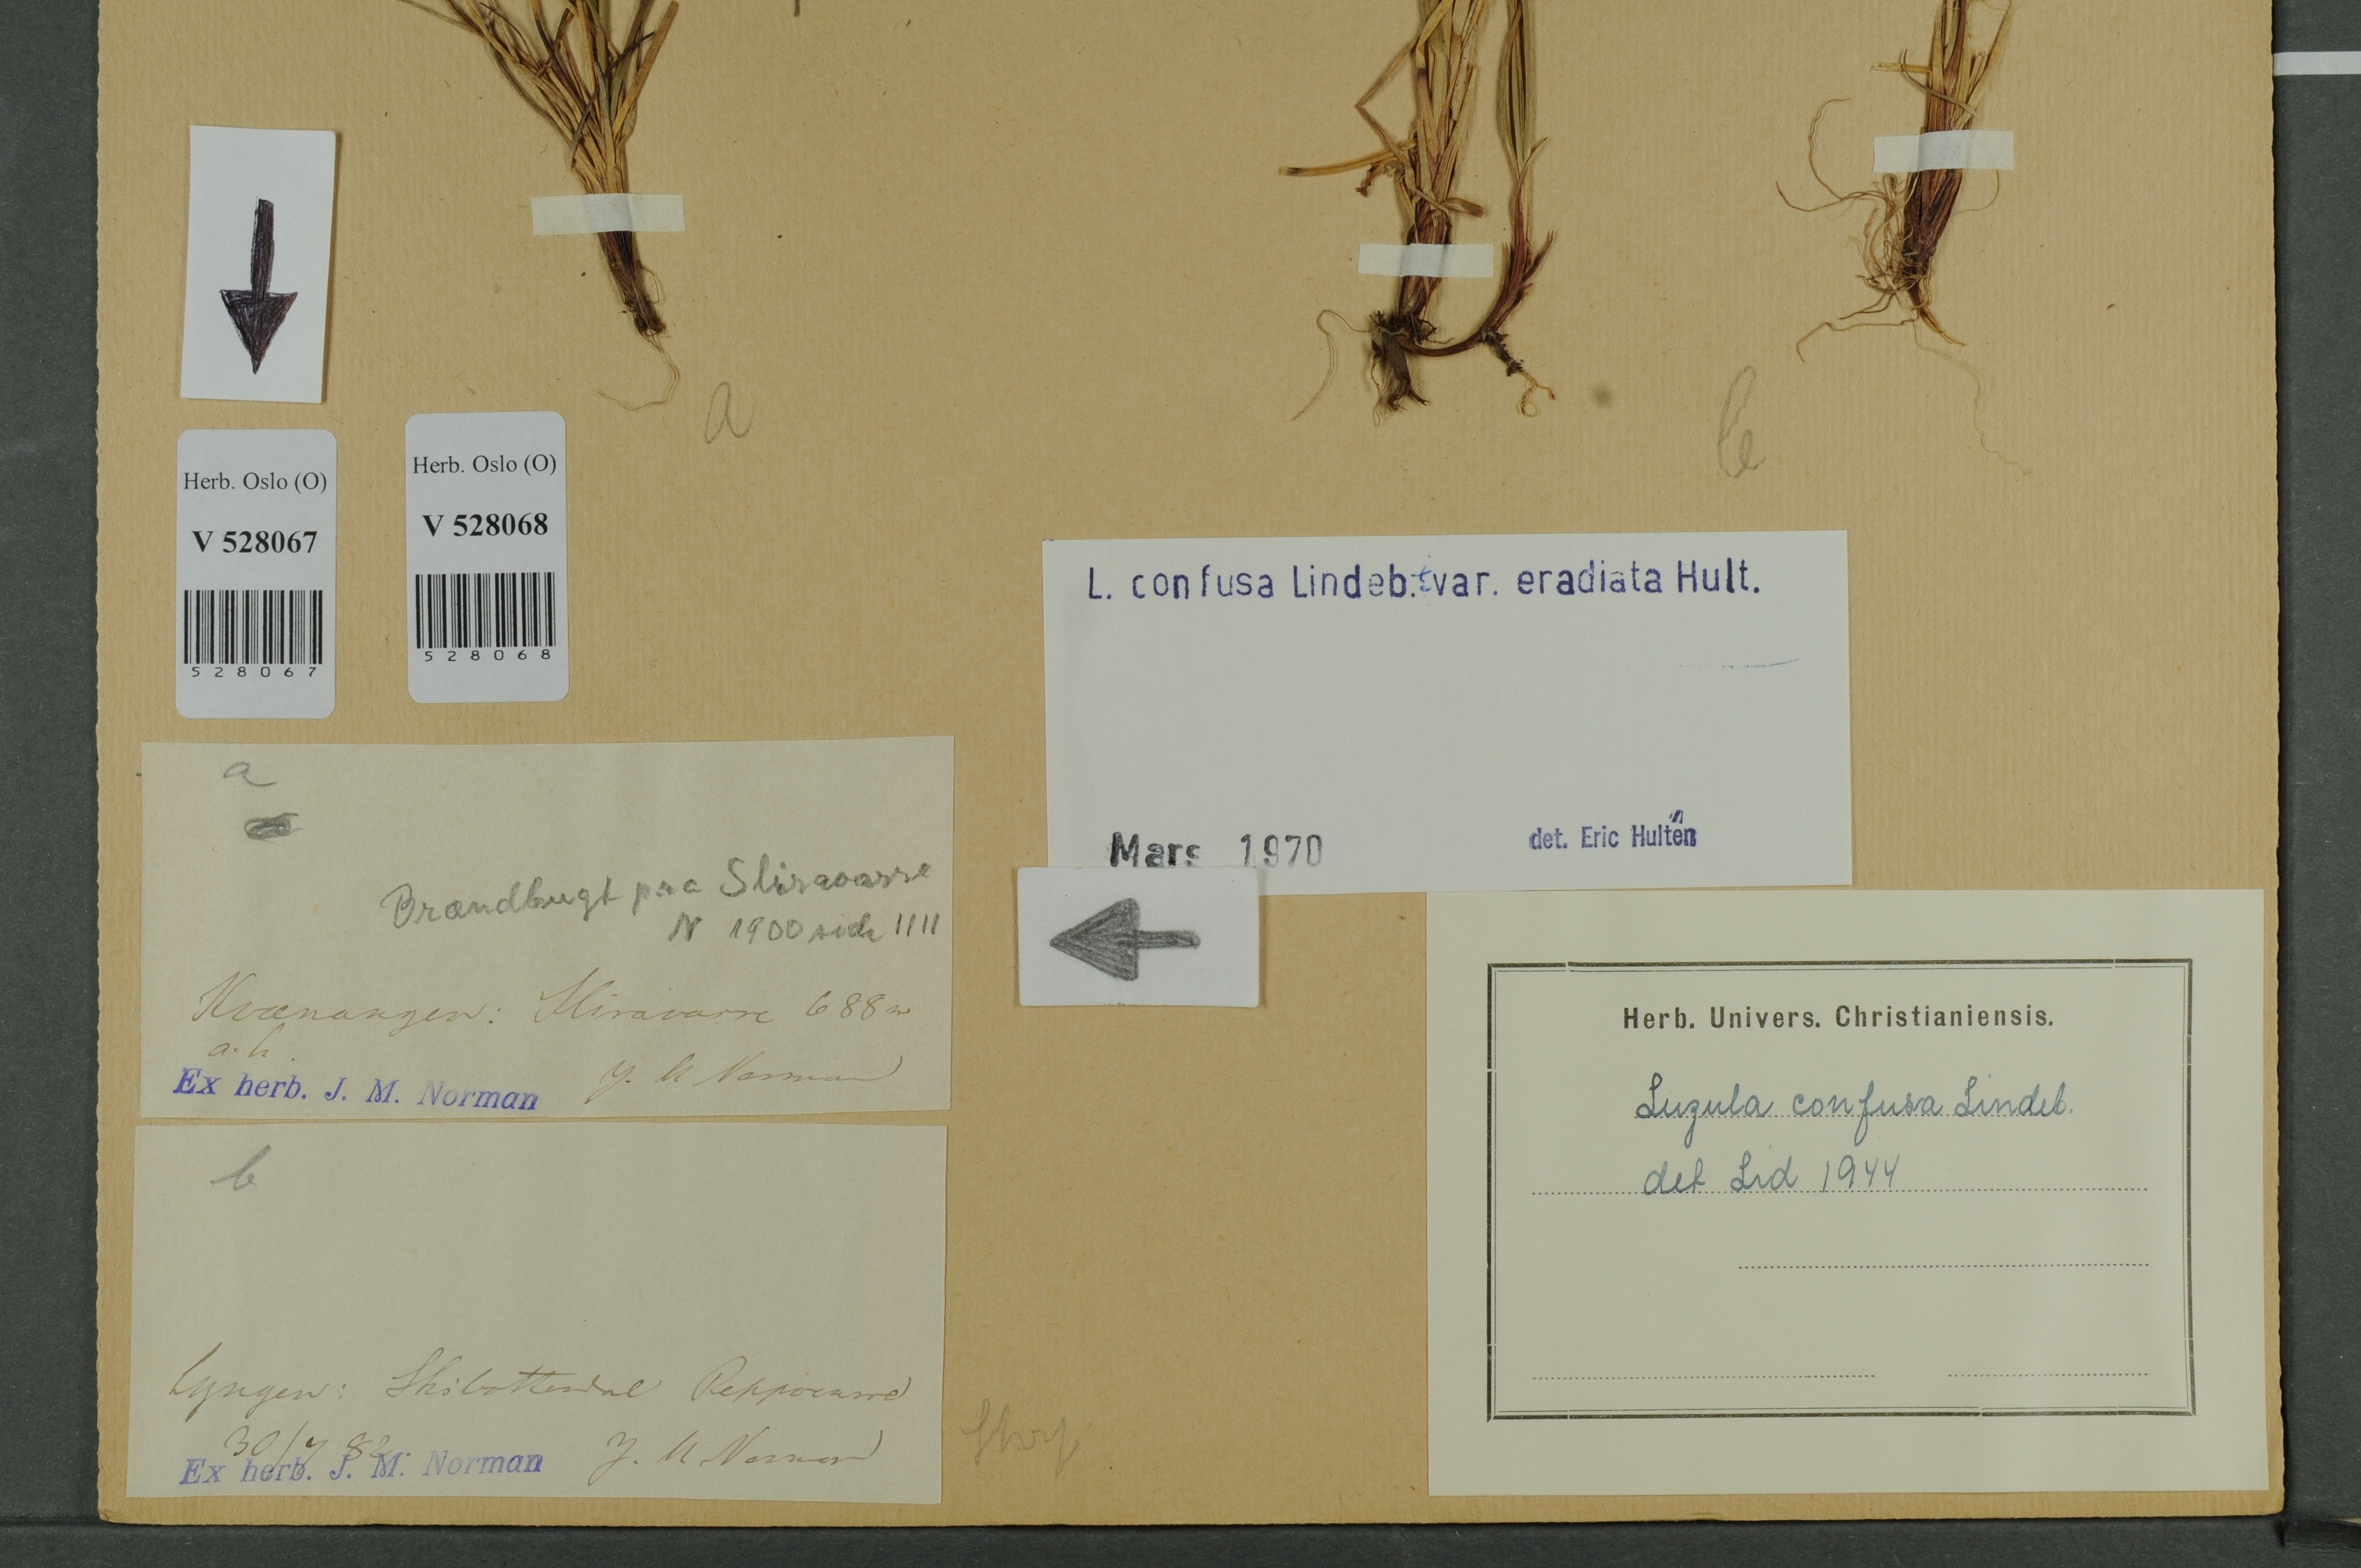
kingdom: Plantae
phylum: Tracheophyta
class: Liliopsida
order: Poales
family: Juncaceae
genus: Luzula
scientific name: Luzula confusa
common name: Northern wood rush
